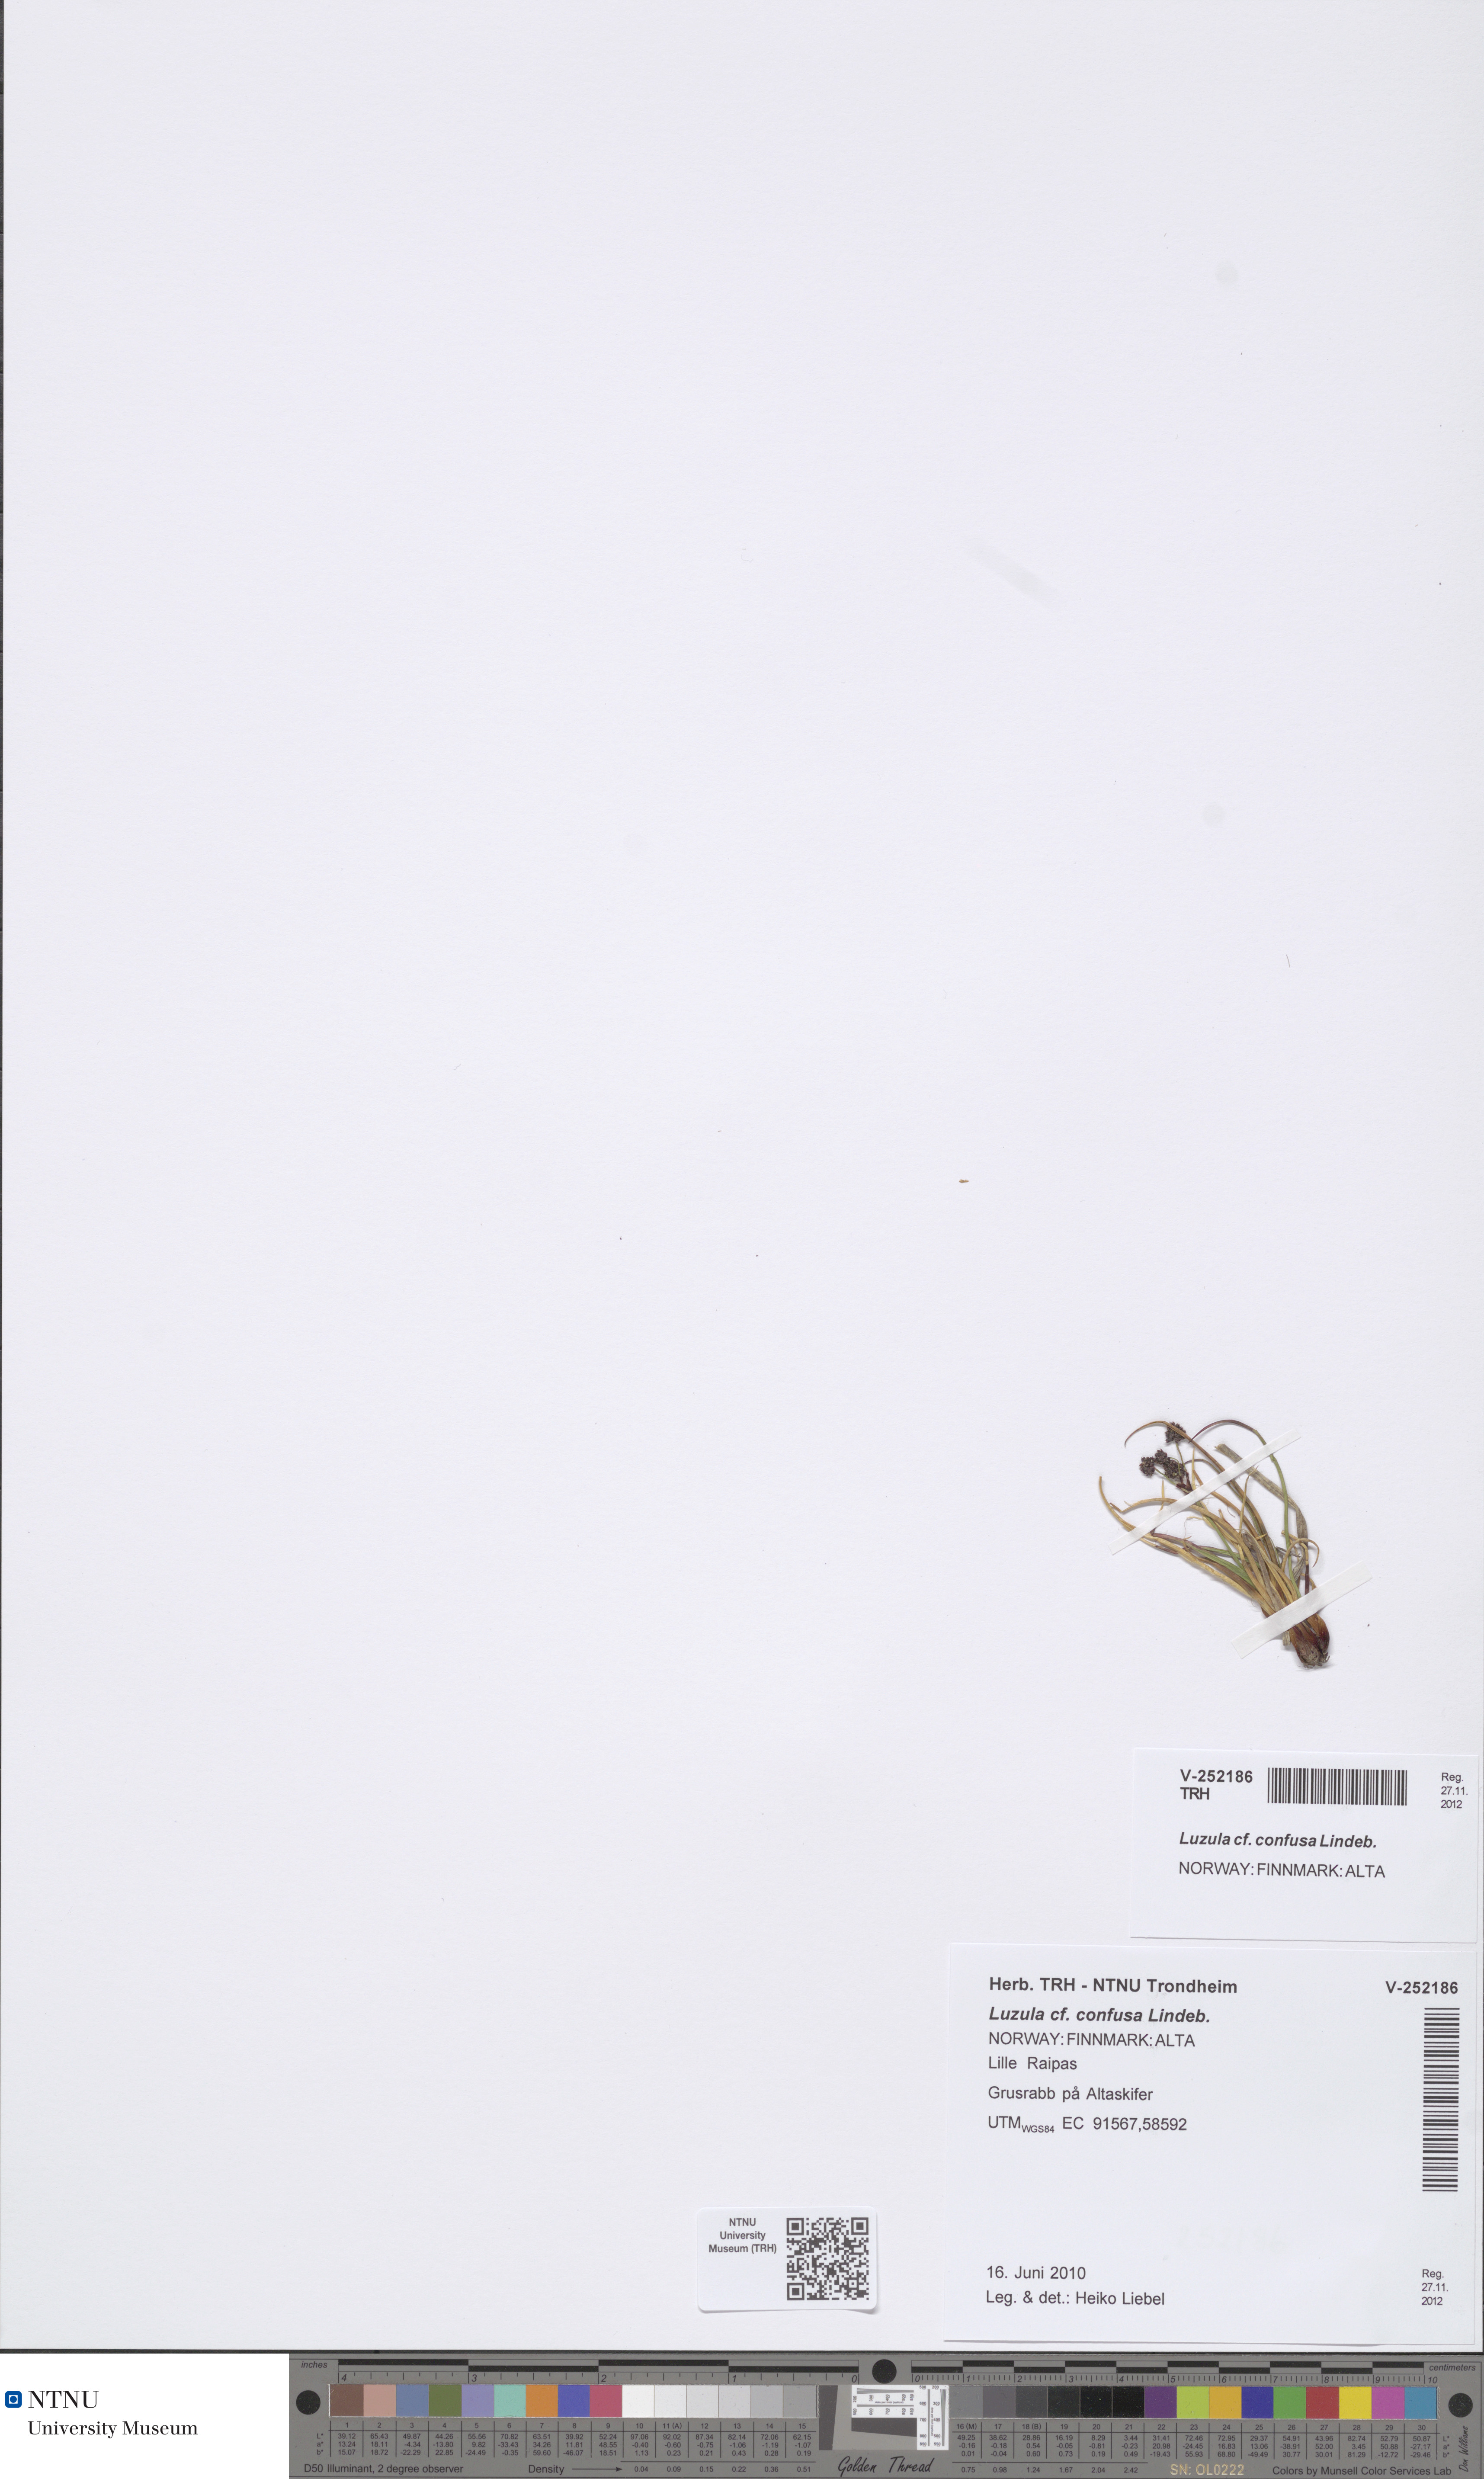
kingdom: Plantae
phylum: Tracheophyta
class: Liliopsida
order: Poales
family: Juncaceae
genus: Luzula
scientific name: Luzula confusa
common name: Northern wood rush
